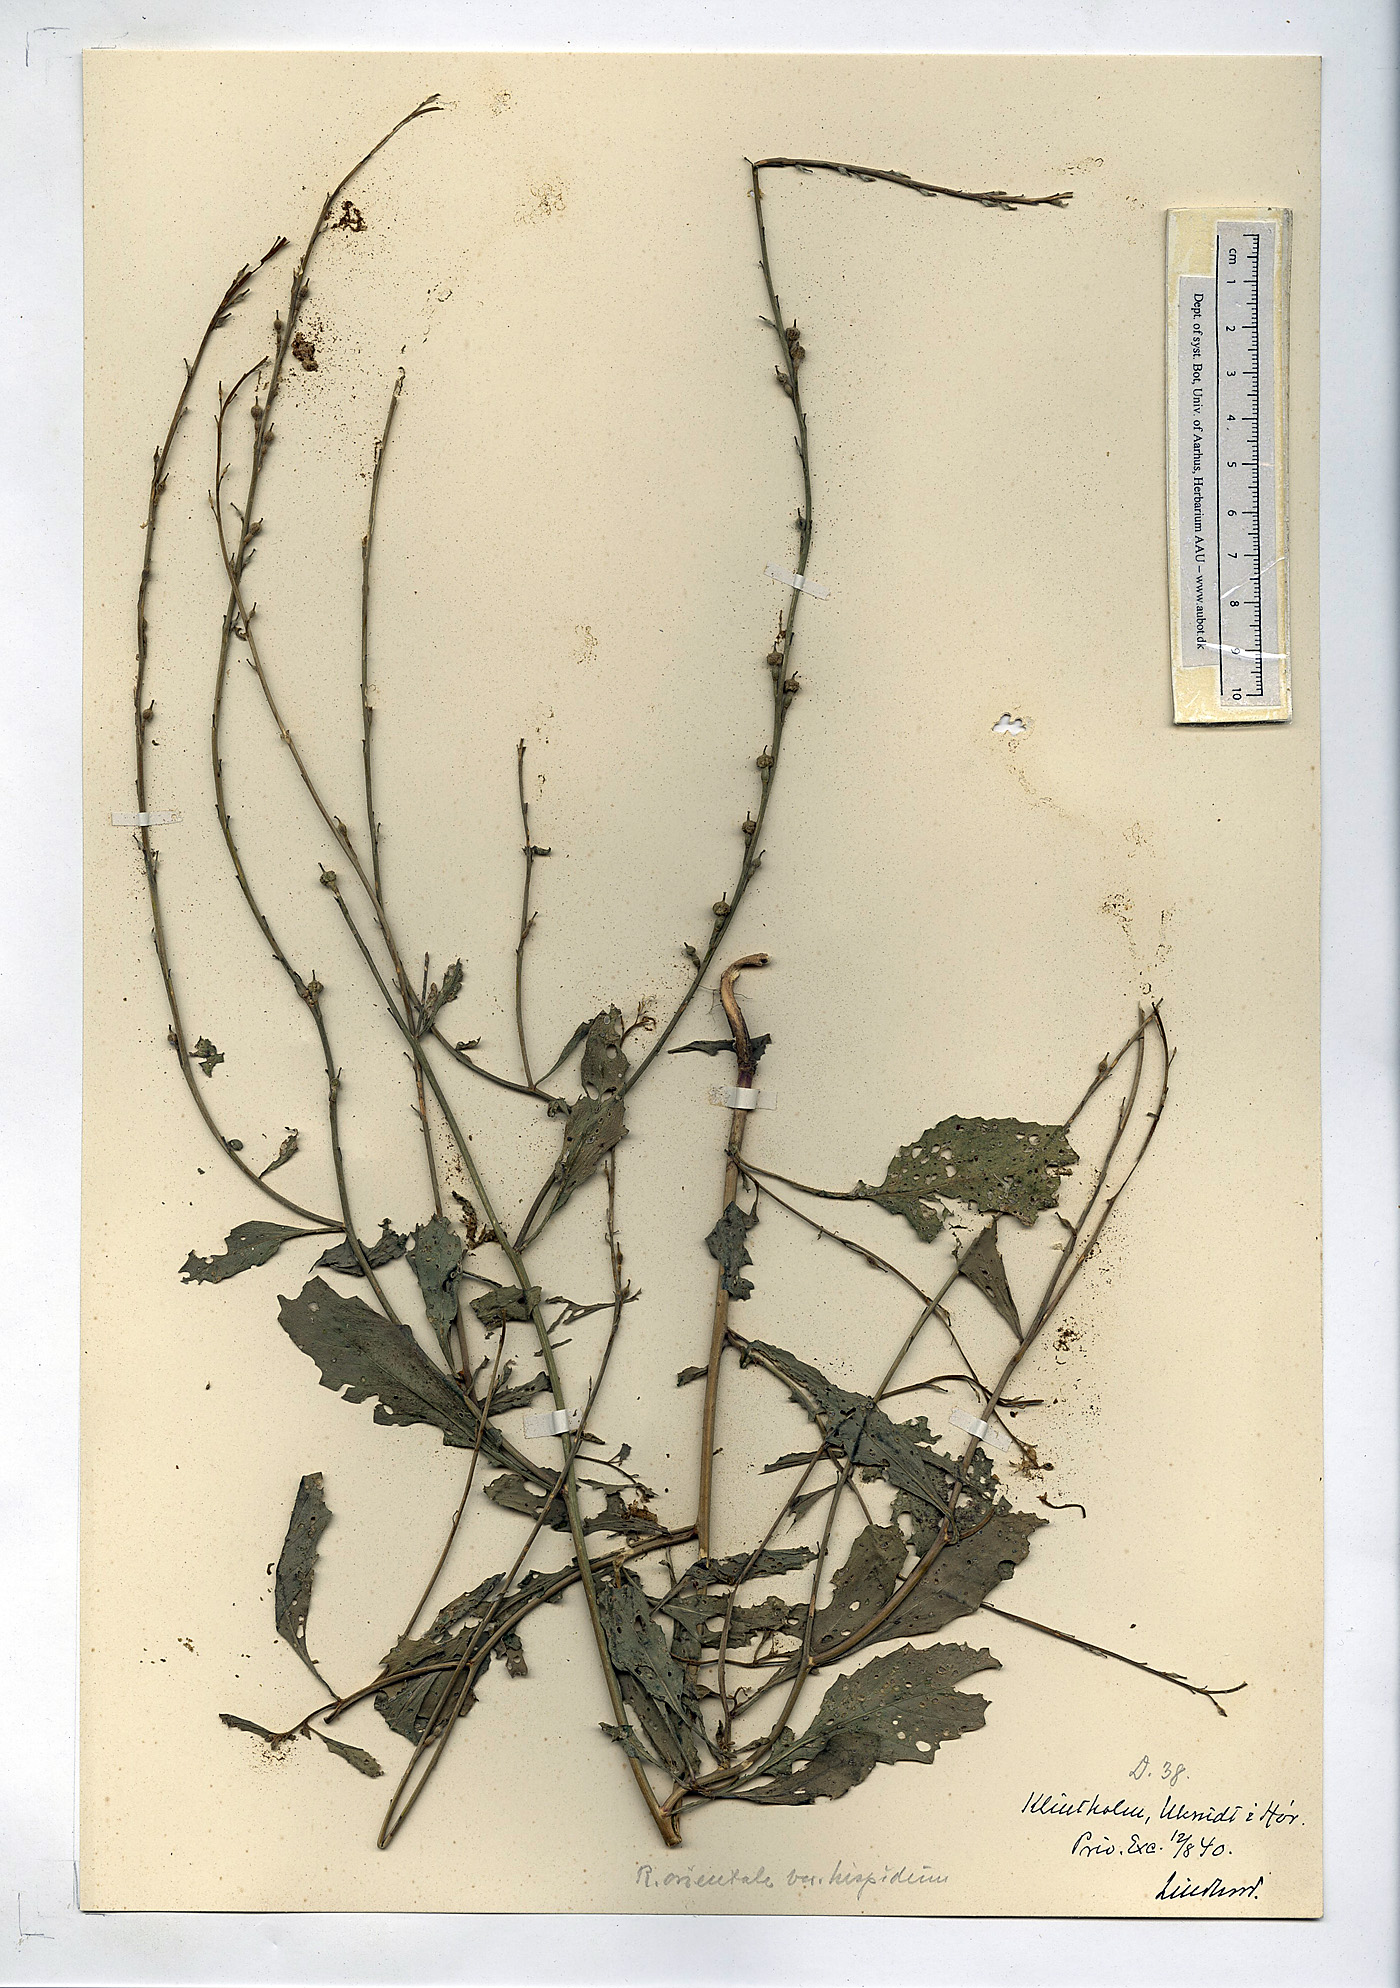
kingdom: Plantae
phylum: Tracheophyta
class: Magnoliopsida
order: Brassicales
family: Brassicaceae
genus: Rapistrum
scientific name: Rapistrum rugosum
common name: Annual bastardcabbage
